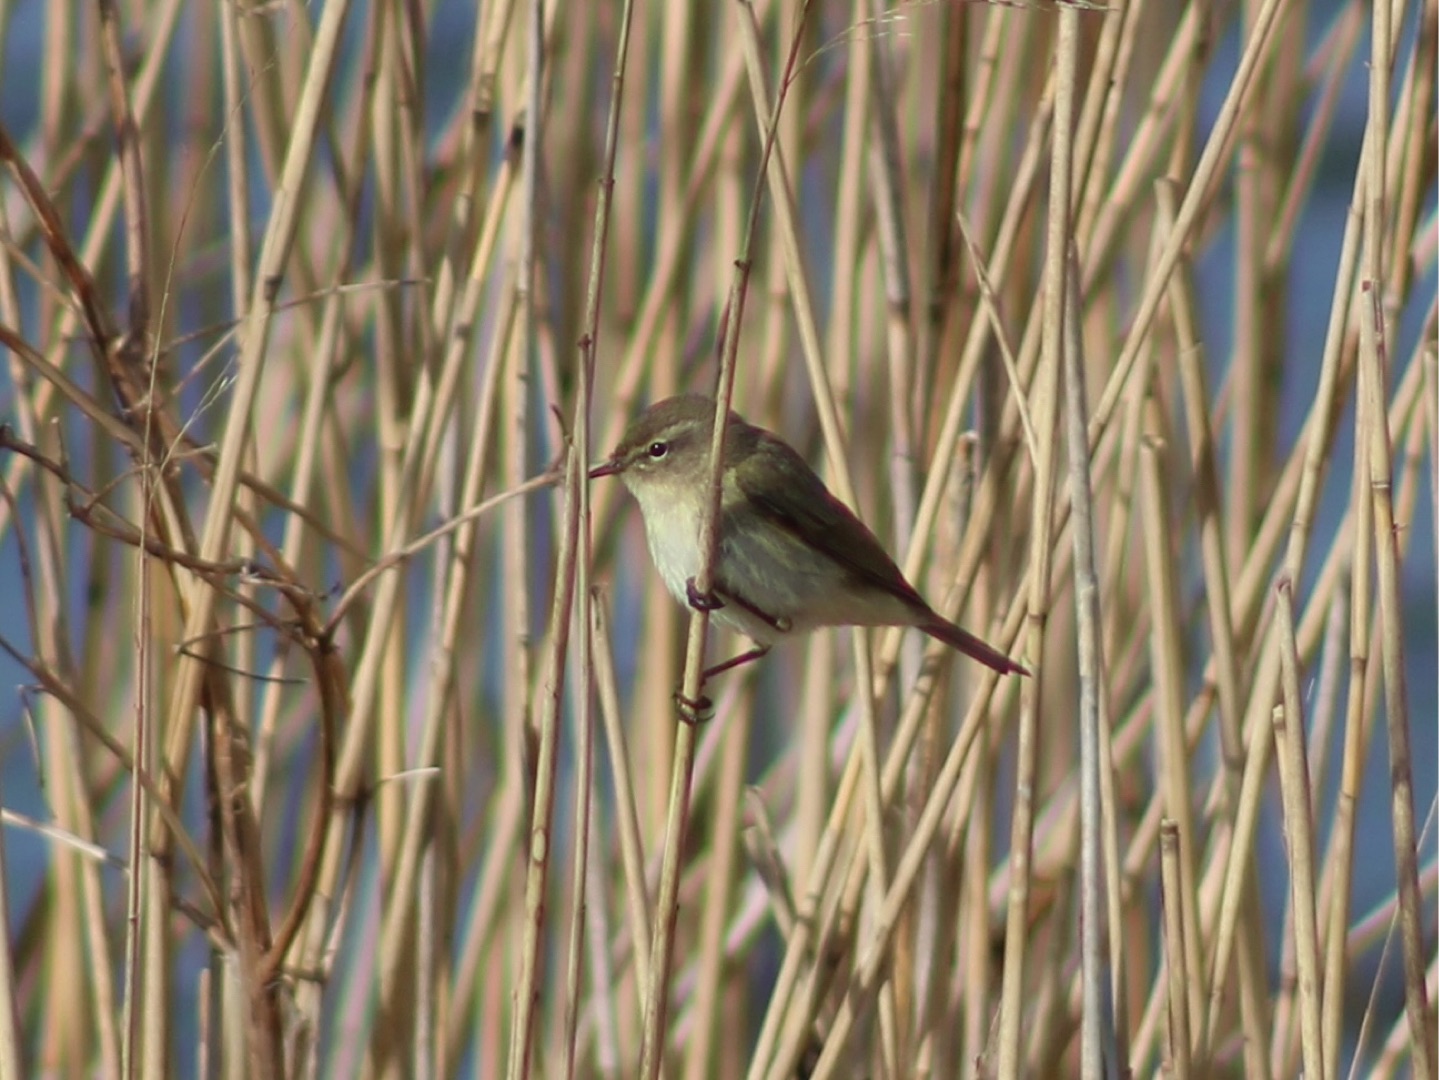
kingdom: Animalia
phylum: Chordata
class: Aves
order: Passeriformes
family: Phylloscopidae
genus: Phylloscopus
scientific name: Phylloscopus collybita
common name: Gransanger
